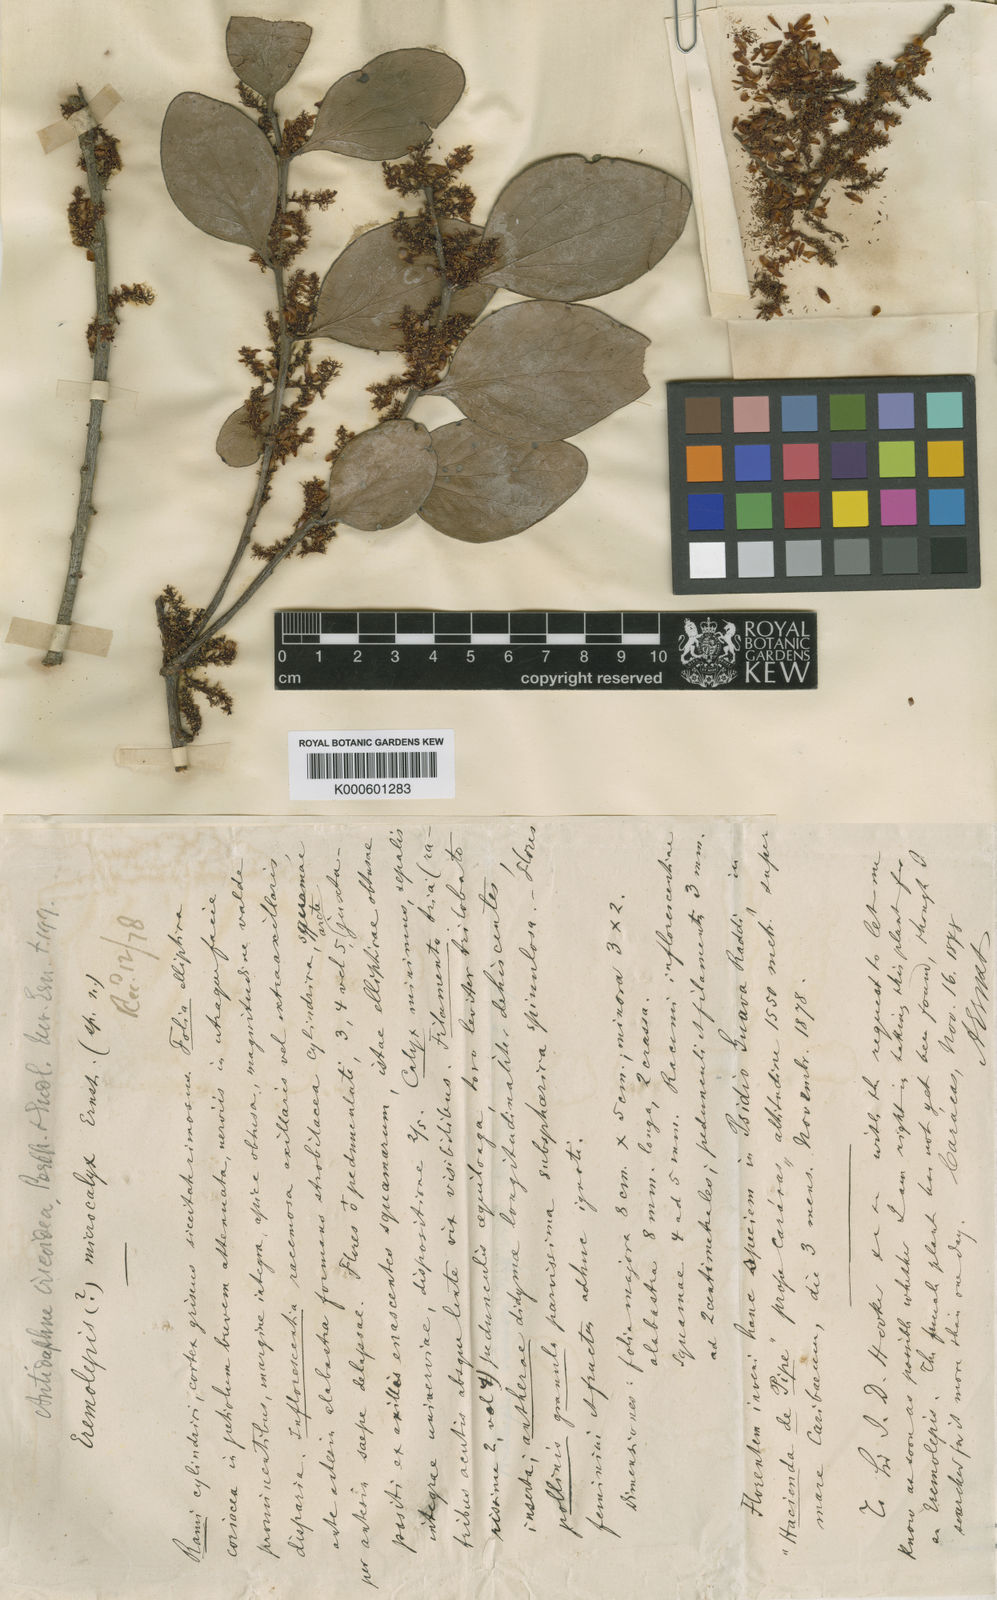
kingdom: Plantae
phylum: Tracheophyta
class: Magnoliopsida
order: Santalales
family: Santalaceae
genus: Antidaphne
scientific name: Antidaphne viscoidea
